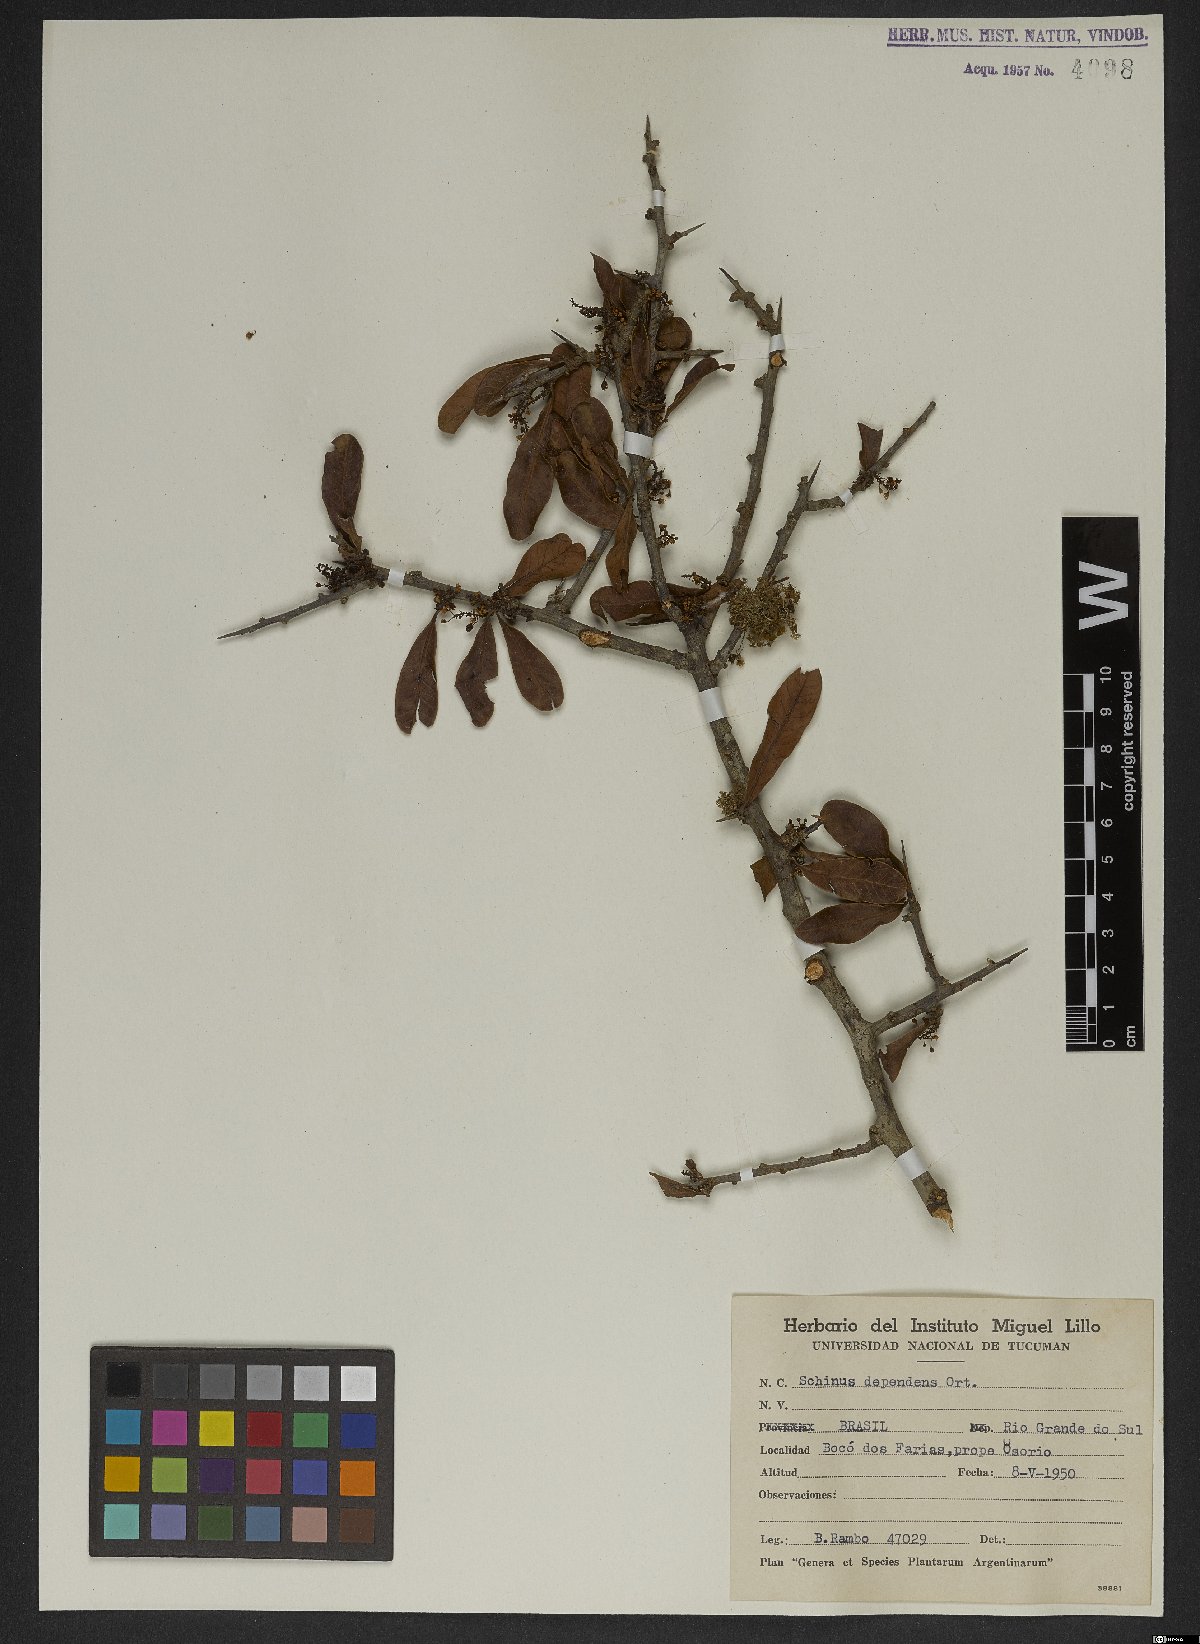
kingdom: Plantae
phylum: Tracheophyta
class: Magnoliopsida
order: Sapindales
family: Anacardiaceae
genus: Schinus
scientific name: Schinus polygama
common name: Hardee peppertree
